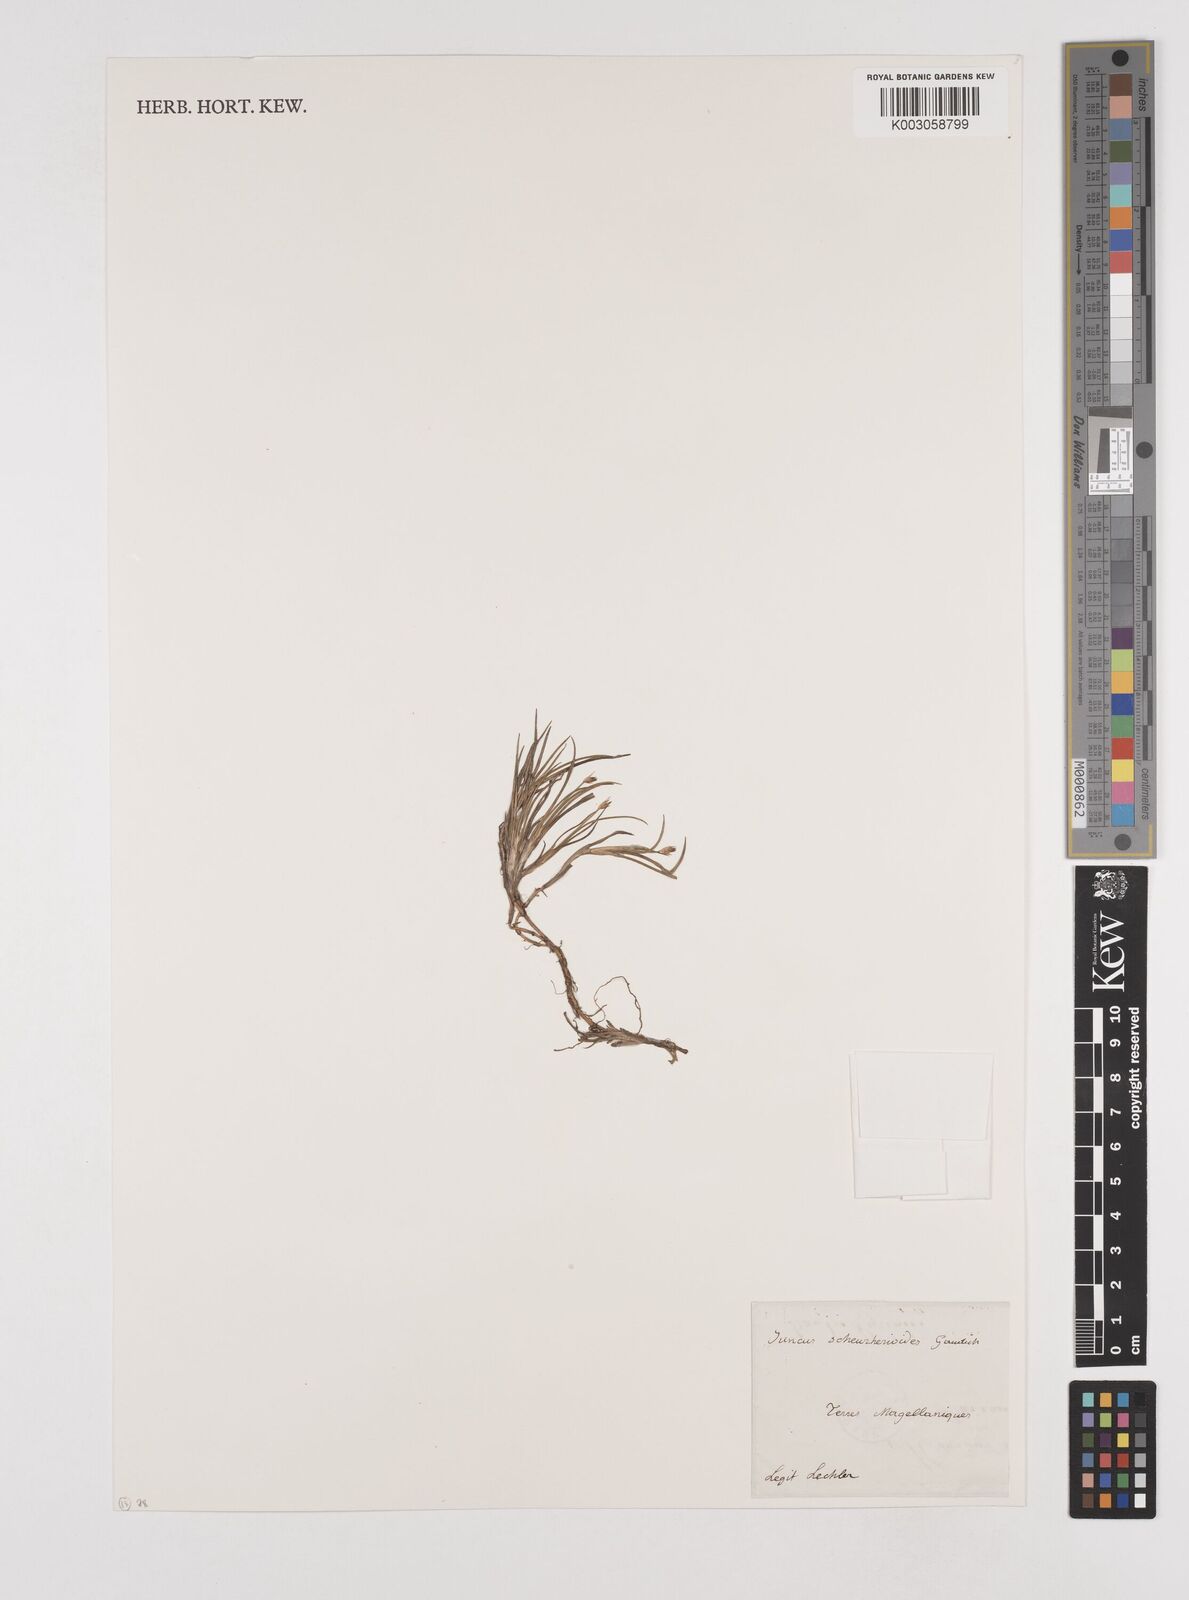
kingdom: Plantae
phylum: Tracheophyta
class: Liliopsida
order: Poales
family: Juncaceae
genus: Juncus
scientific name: Juncus scheuchzerioides
